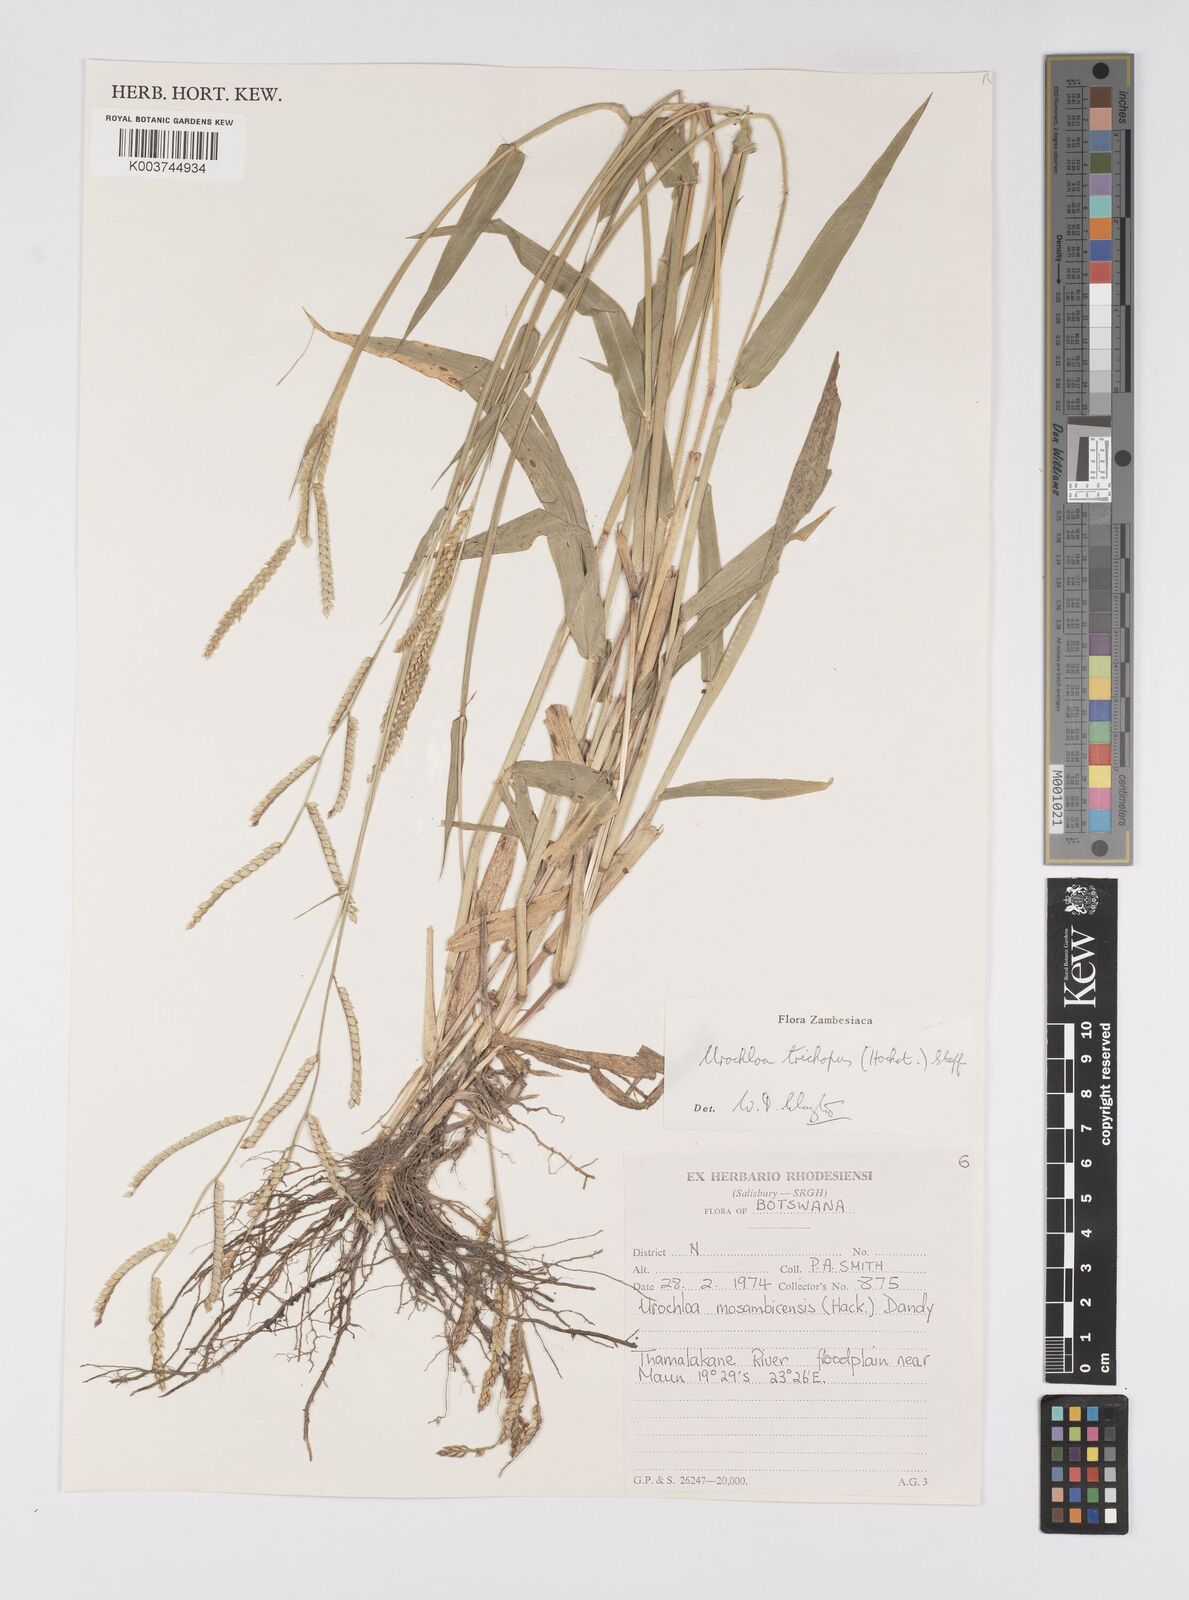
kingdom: Plantae
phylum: Tracheophyta
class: Liliopsida
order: Poales
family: Poaceae
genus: Urochloa
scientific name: Urochloa trichopus
